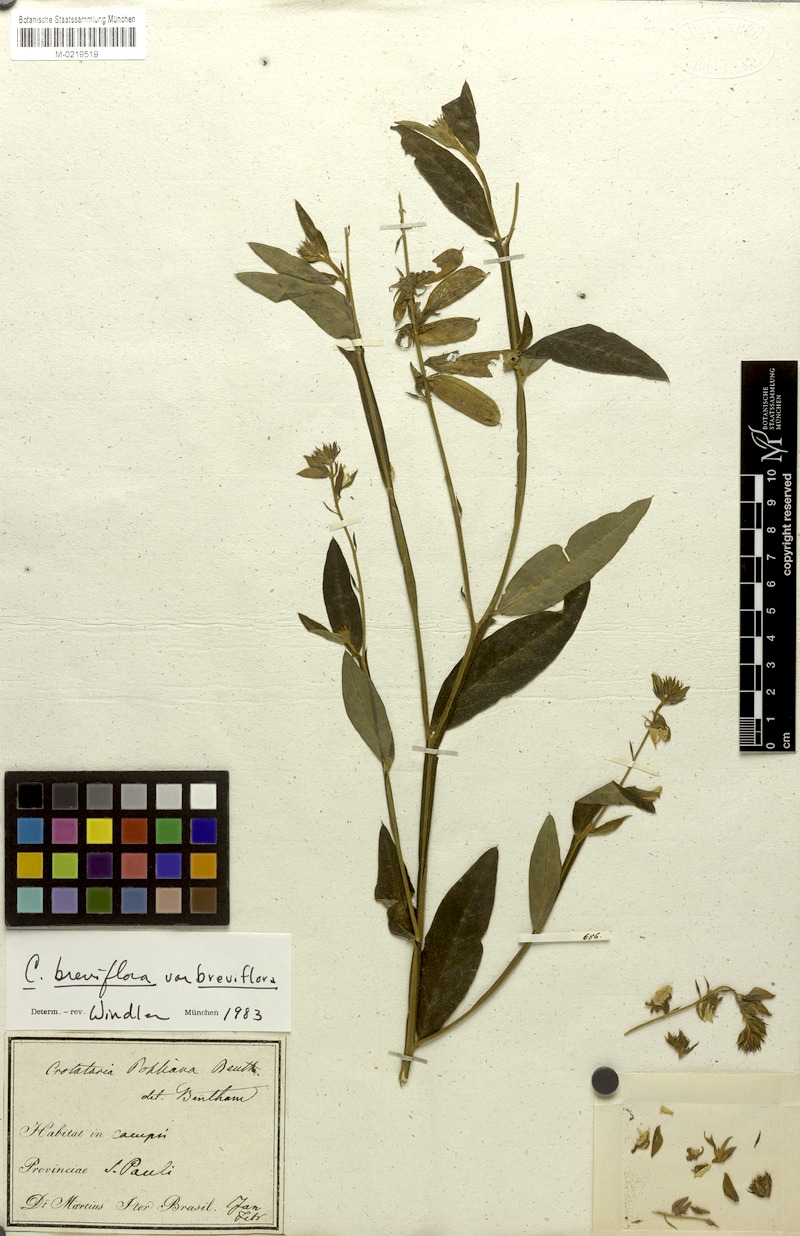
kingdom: Plantae
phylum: Tracheophyta
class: Magnoliopsida
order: Fabales
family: Fabaceae
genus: Crotalaria
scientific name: Crotalaria breviflora
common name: Short-flower crotalaria
